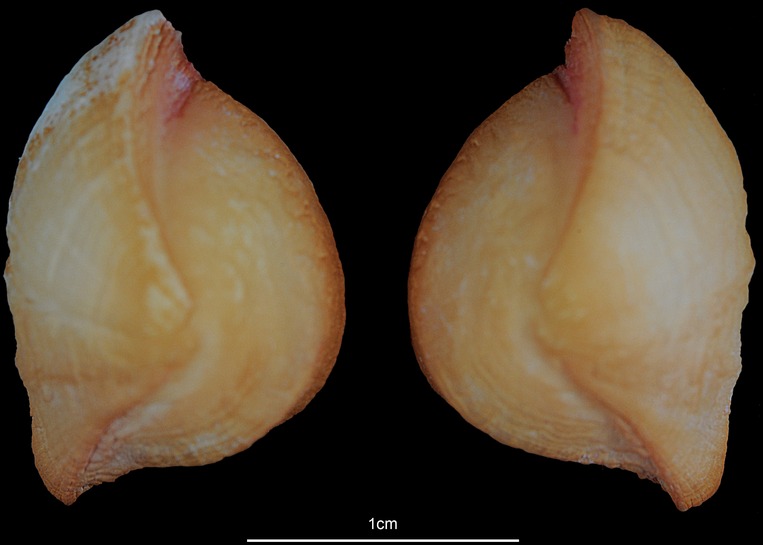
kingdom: Animalia
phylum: Chordata
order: Siluriformes
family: Ariidae
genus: Netuma
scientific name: Netuma thalassina
